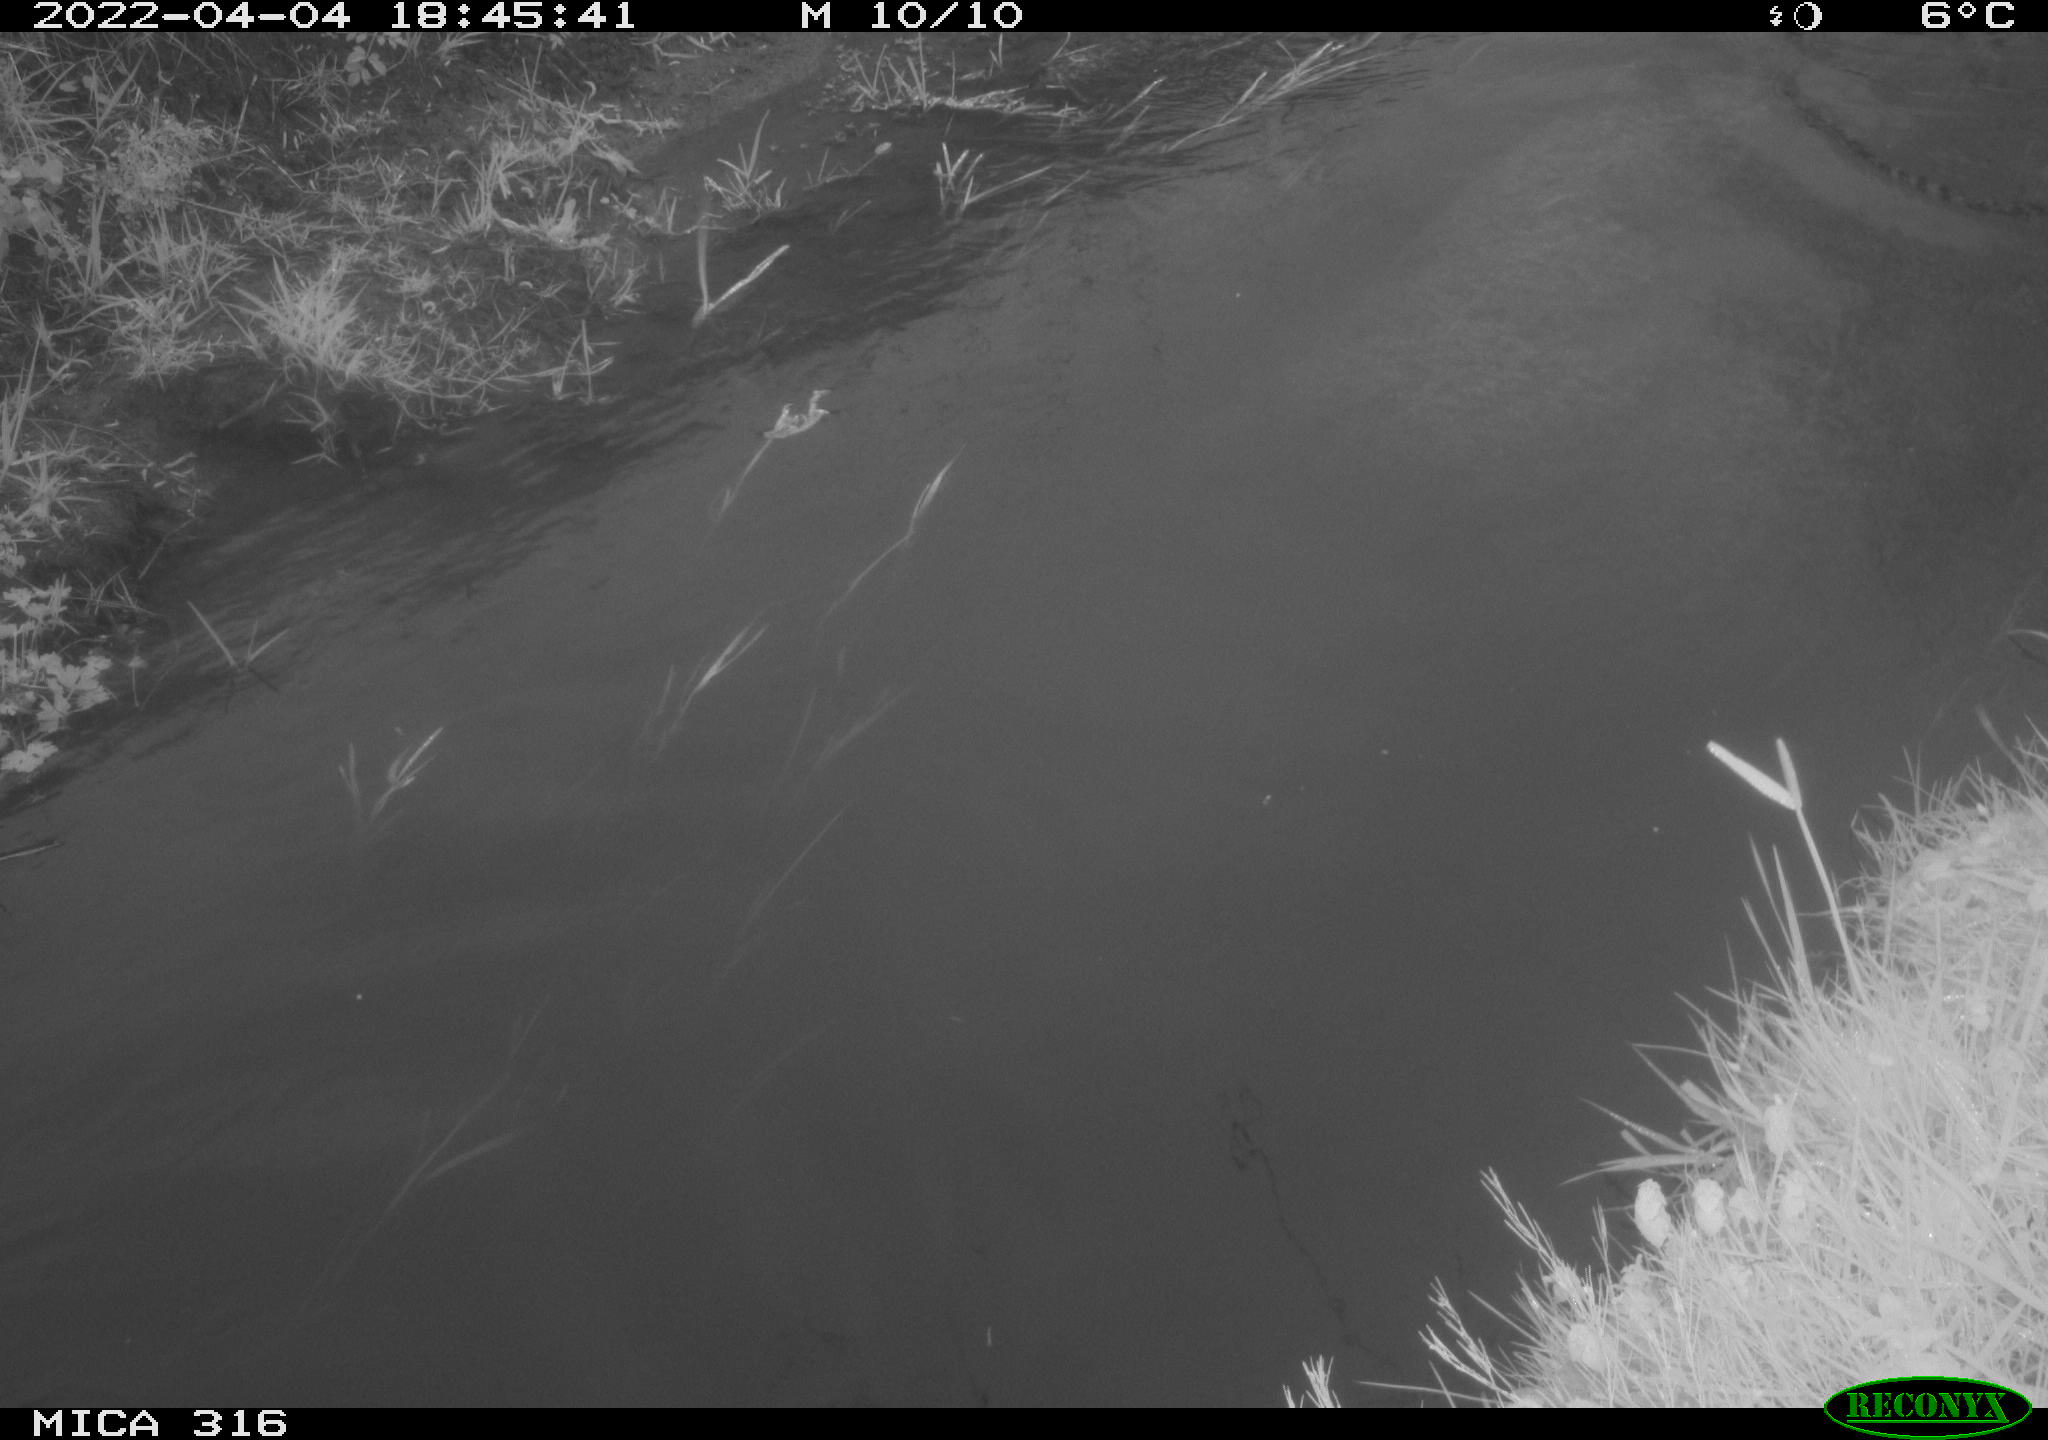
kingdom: Animalia
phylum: Chordata
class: Aves
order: Anseriformes
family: Anatidae
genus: Anas
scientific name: Anas platyrhynchos
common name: Mallard
